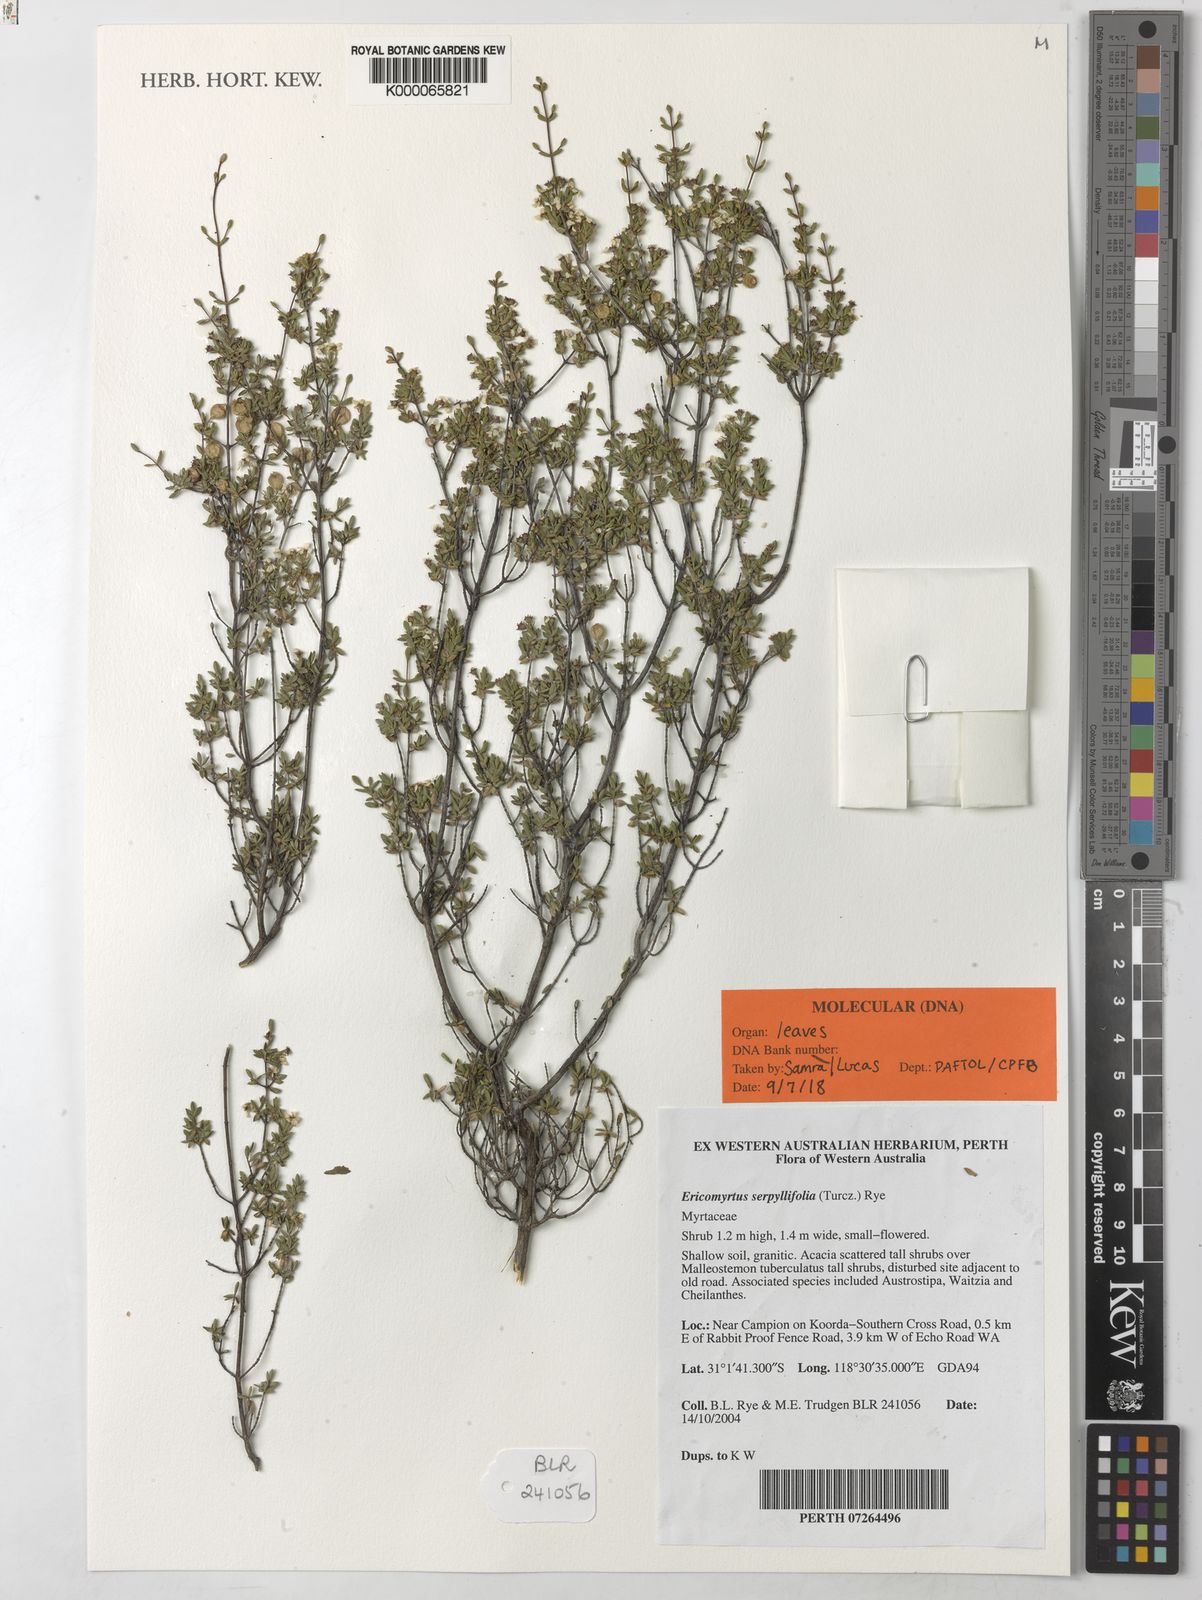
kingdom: Plantae
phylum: Tracheophyta
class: Magnoliopsida
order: Myrtales
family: Myrtaceae
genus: Ericomyrtus
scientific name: Ericomyrtus serpyllifolia
